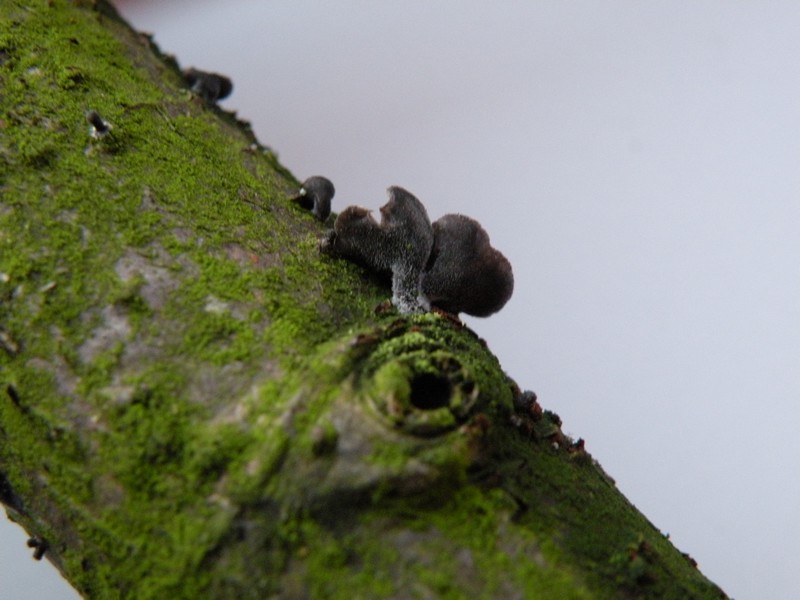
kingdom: Fungi
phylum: Basidiomycota
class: Agaricomycetes
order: Agaricales
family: Pleurotaceae
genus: Resupinatus
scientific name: Resupinatus trichotis
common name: mørkfiltet barkhat
